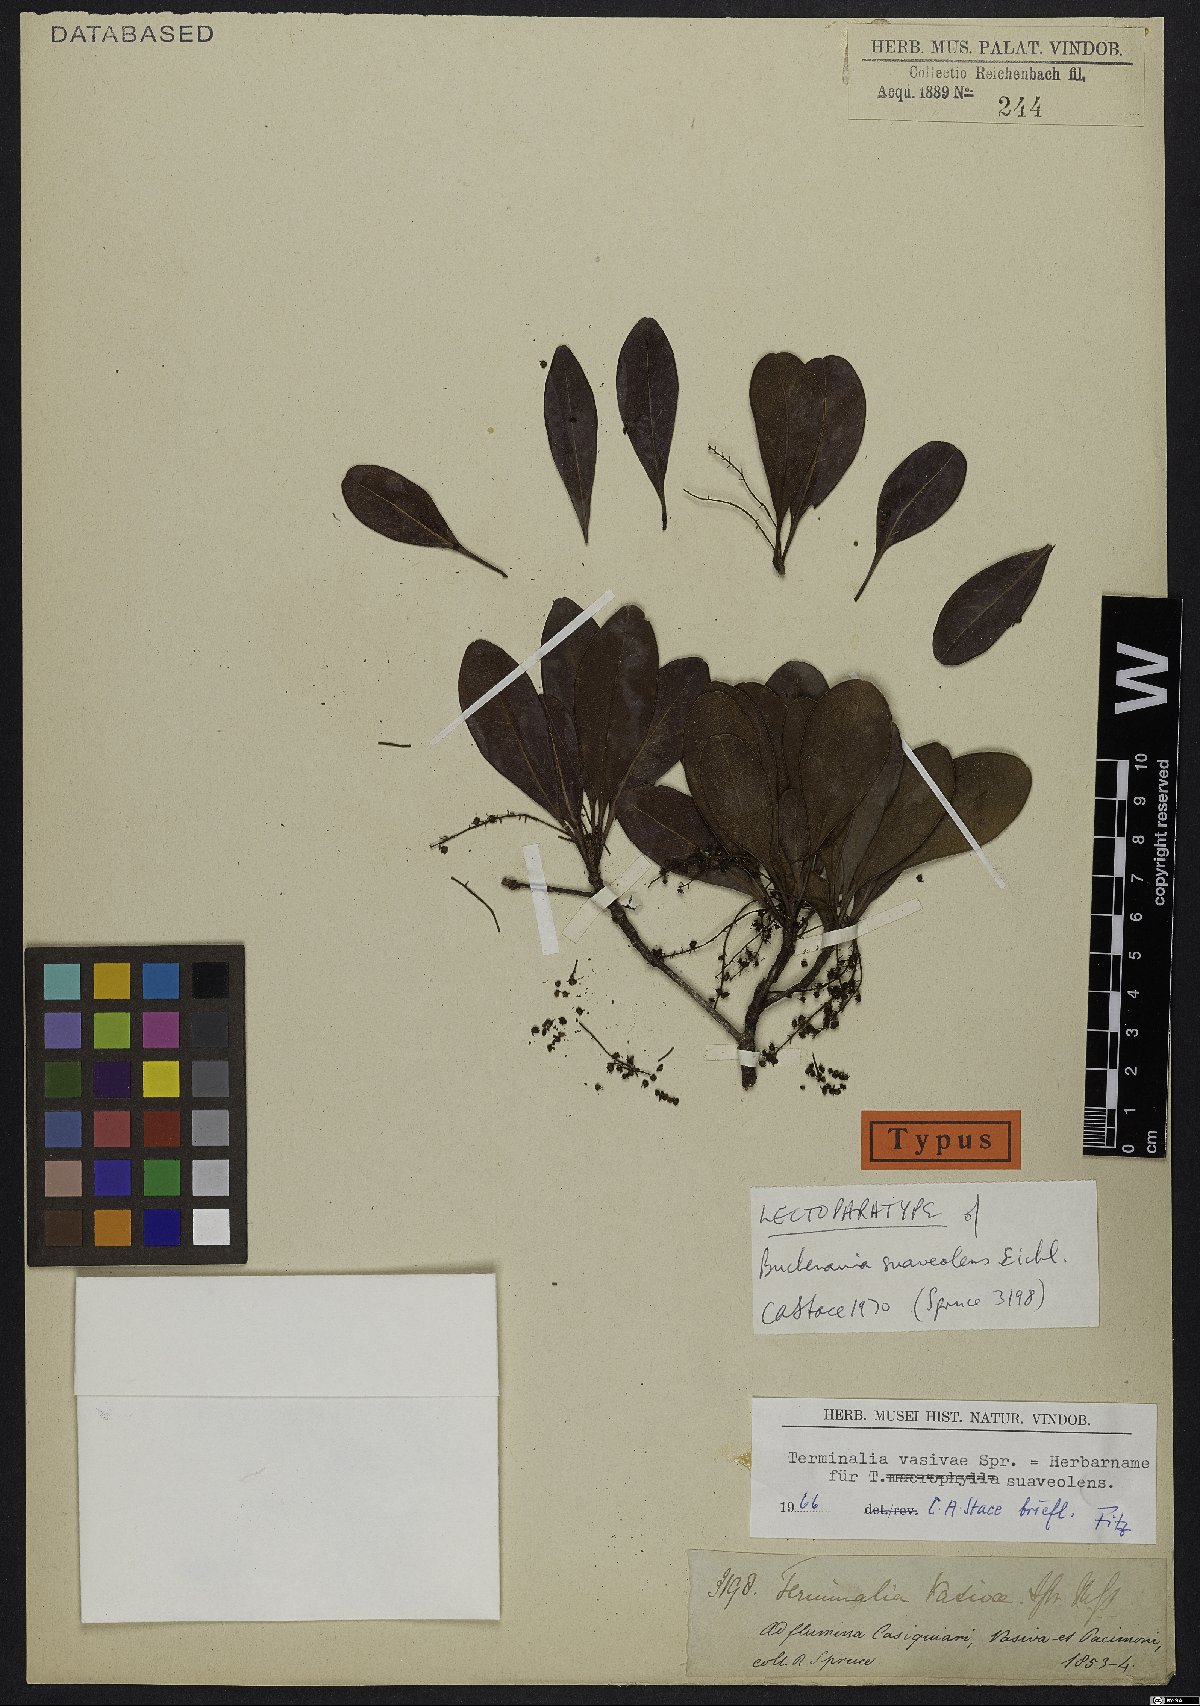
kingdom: Plantae
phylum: Tracheophyta
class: Magnoliopsida
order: Myrtales
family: Combretaceae
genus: Terminalia
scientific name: Terminalia suaveolens
